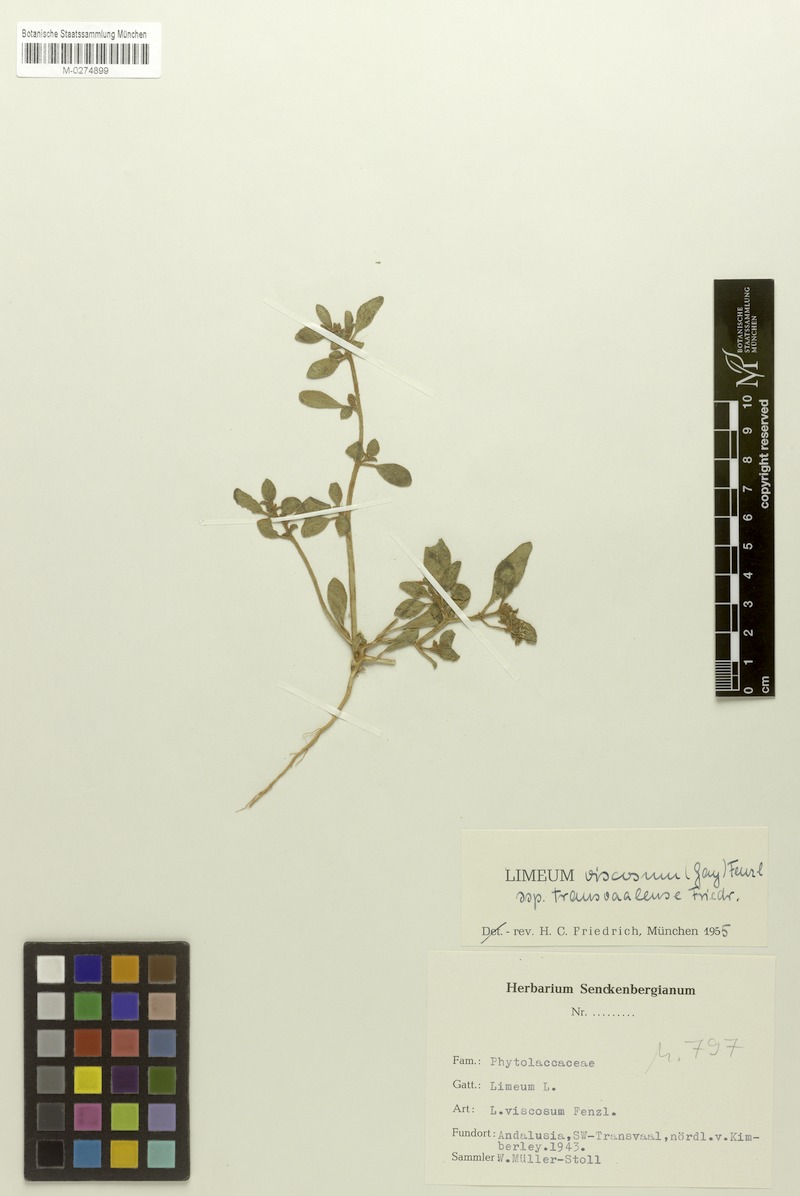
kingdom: Plantae
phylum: Tracheophyta
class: Magnoliopsida
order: Caryophyllales
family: Limeaceae
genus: Limeum
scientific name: Limeum viscosum
